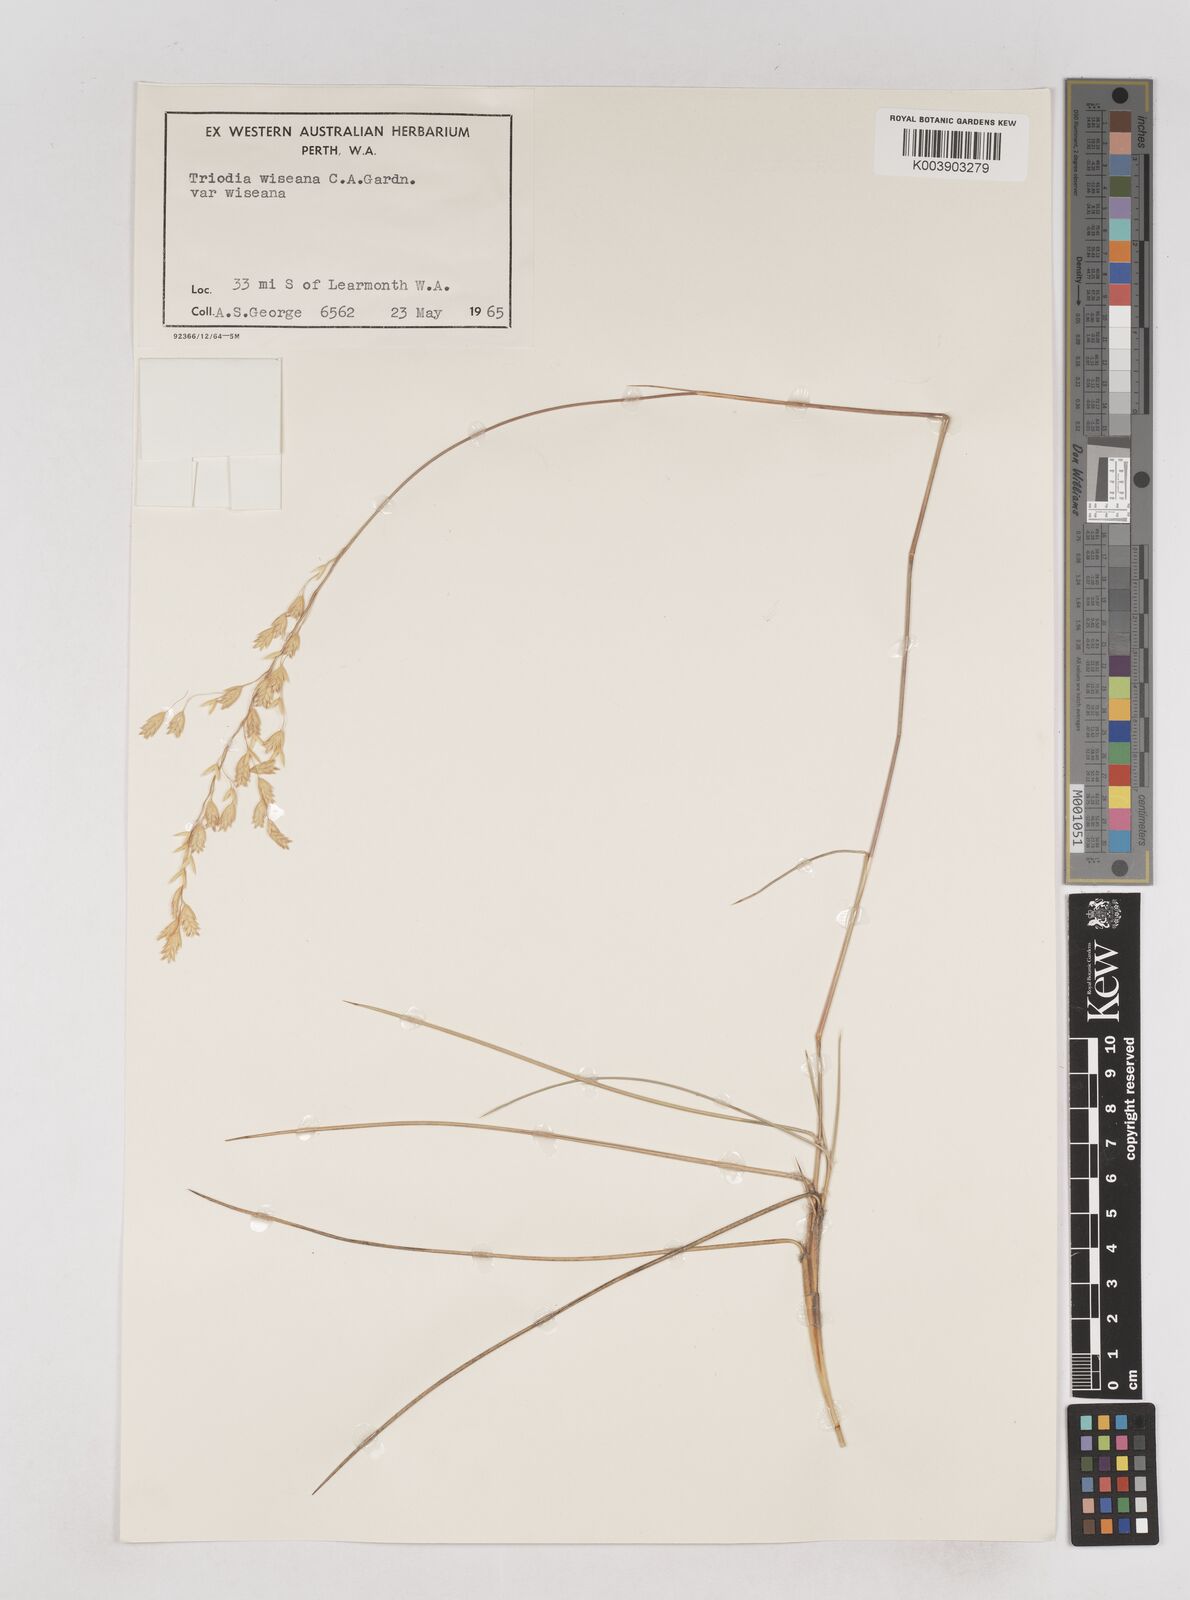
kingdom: Plantae
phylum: Tracheophyta
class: Liliopsida
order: Poales
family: Poaceae
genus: Triodia
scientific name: Triodia wiseana
